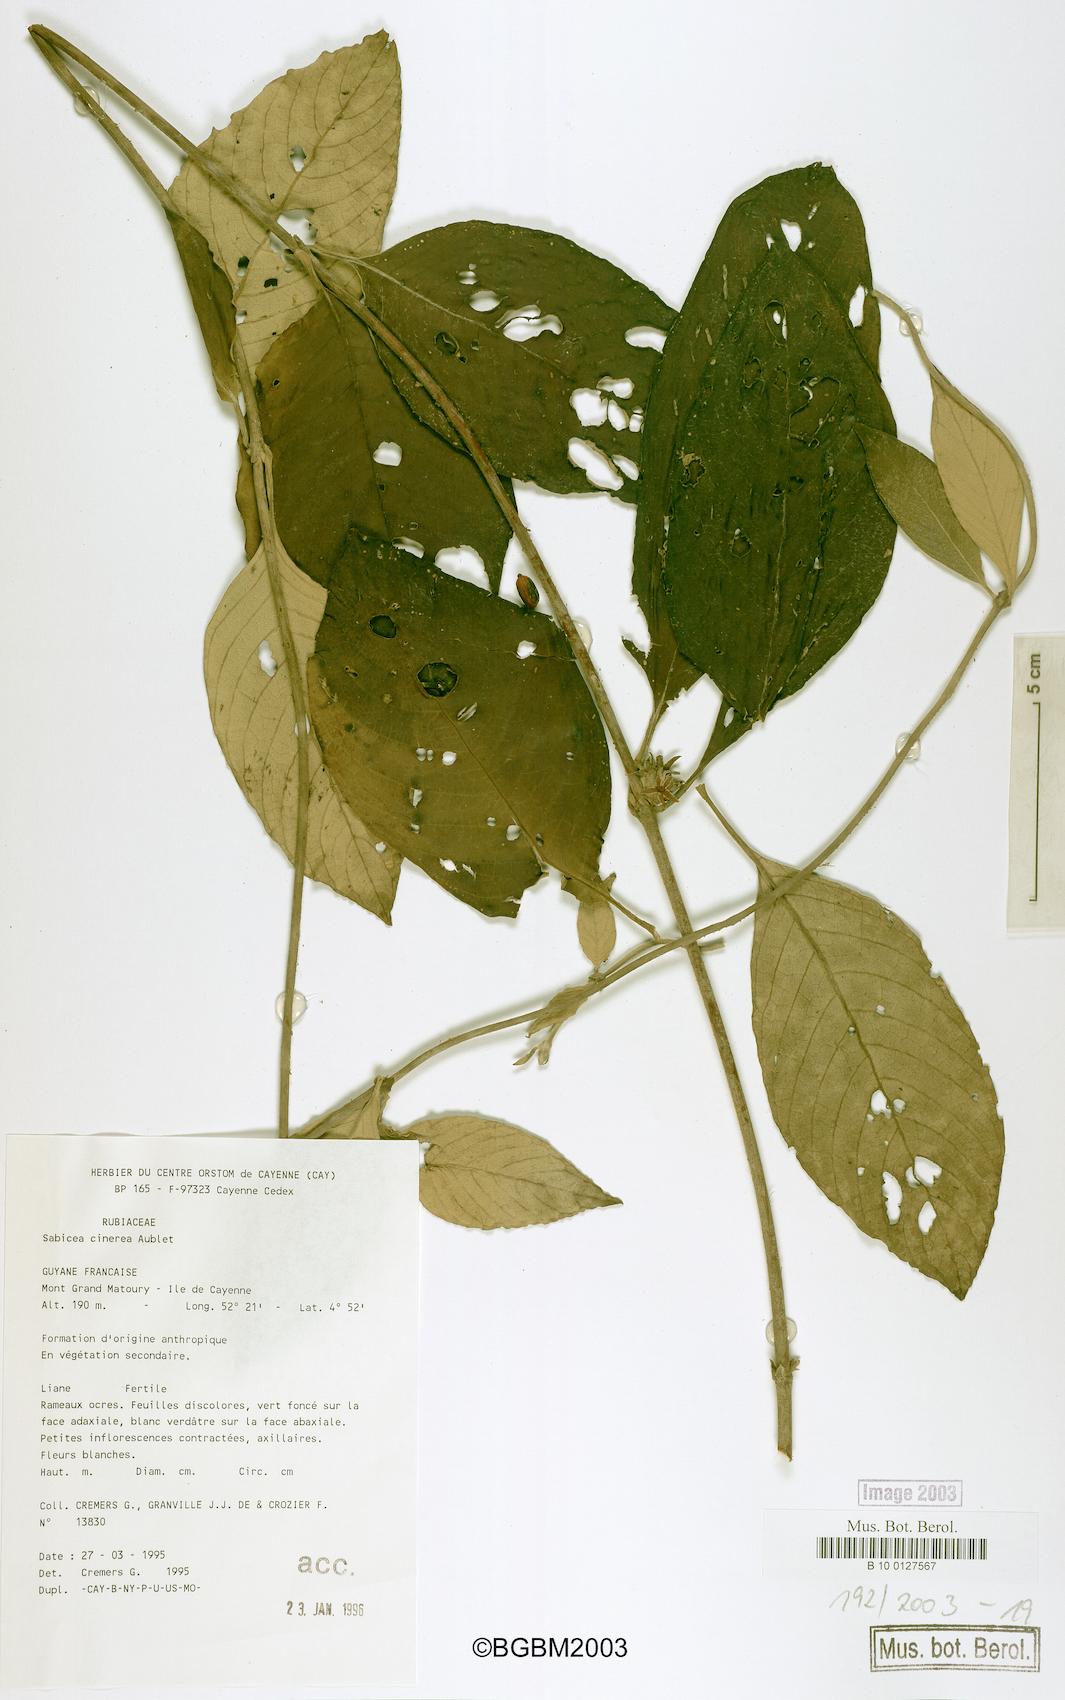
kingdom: Plantae
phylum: Tracheophyta
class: Magnoliopsida
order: Gentianales
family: Rubiaceae
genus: Sabicea
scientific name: Sabicea cinerea
